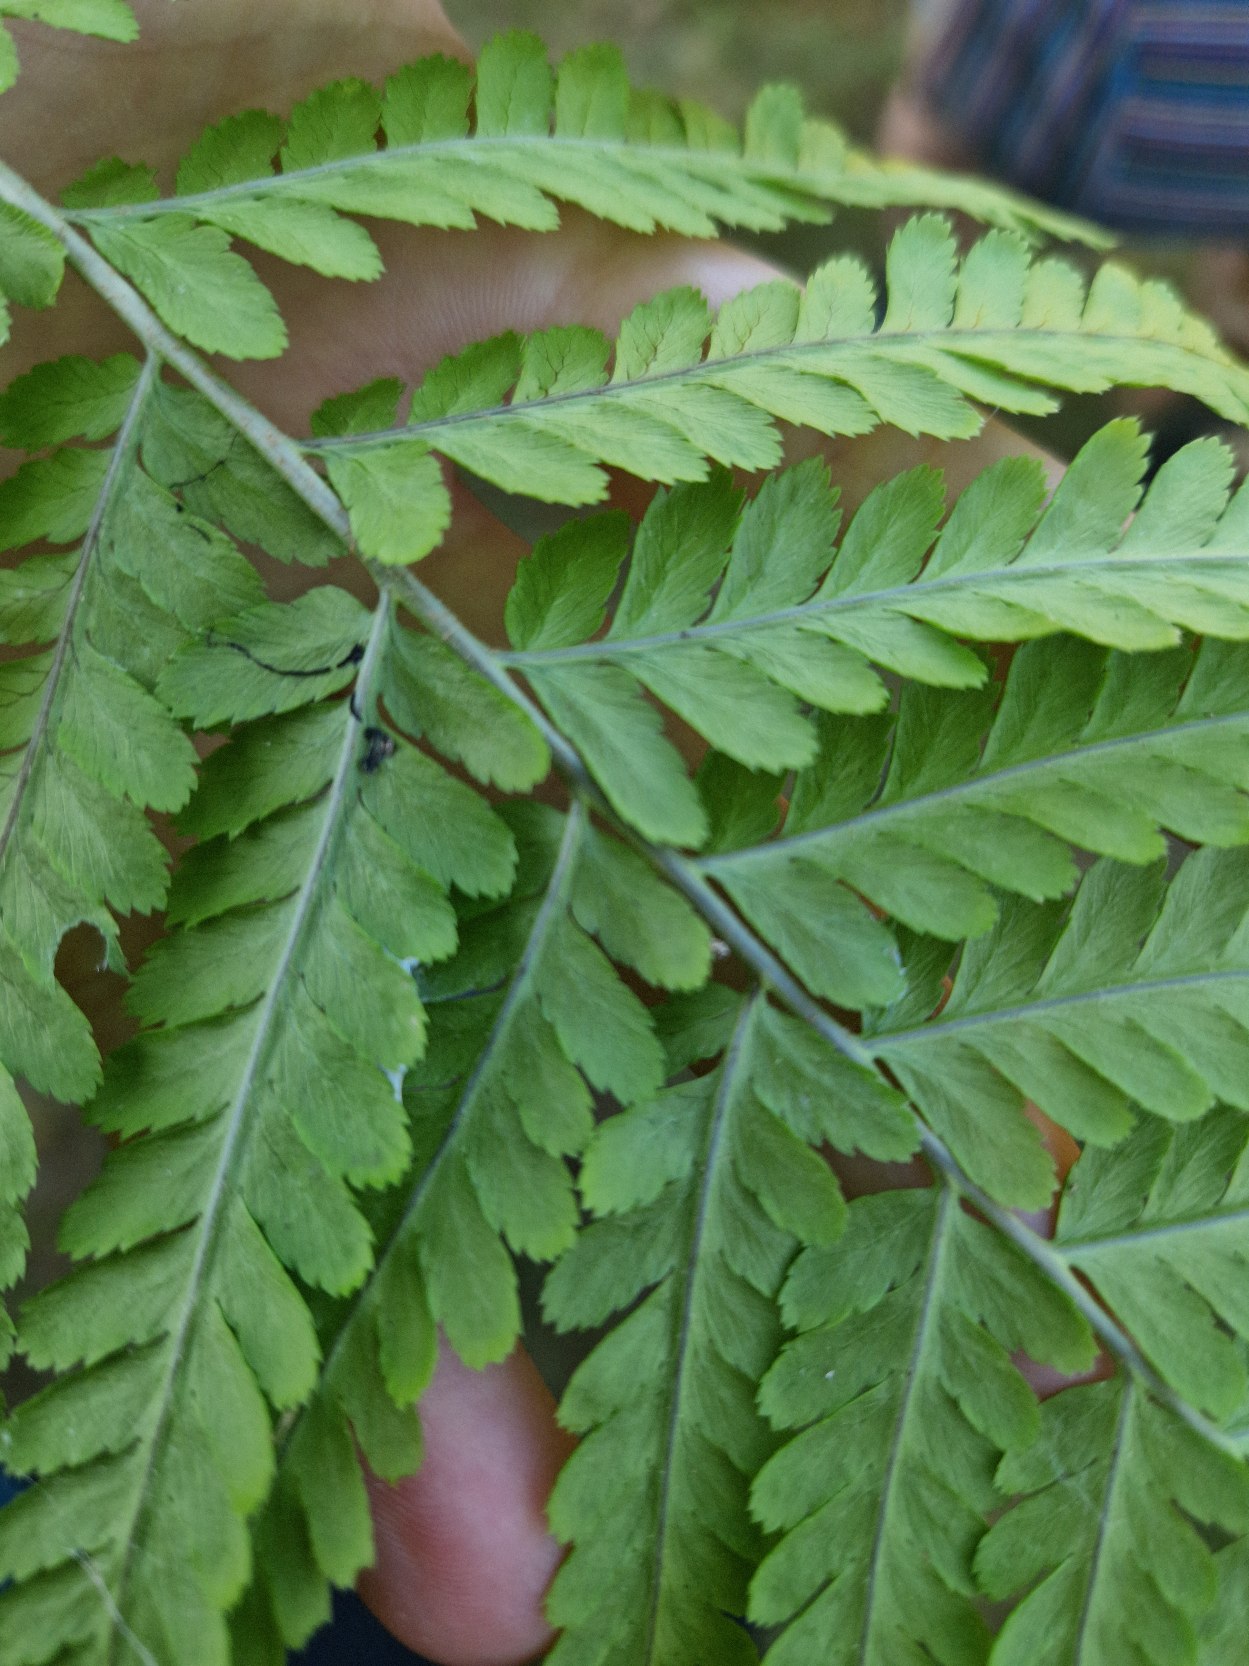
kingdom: Plantae
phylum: Tracheophyta
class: Polypodiopsida
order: Polypodiales
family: Dryopteridaceae
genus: Dryopteris
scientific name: Dryopteris filix-mas
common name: Almindelig mangeløv
